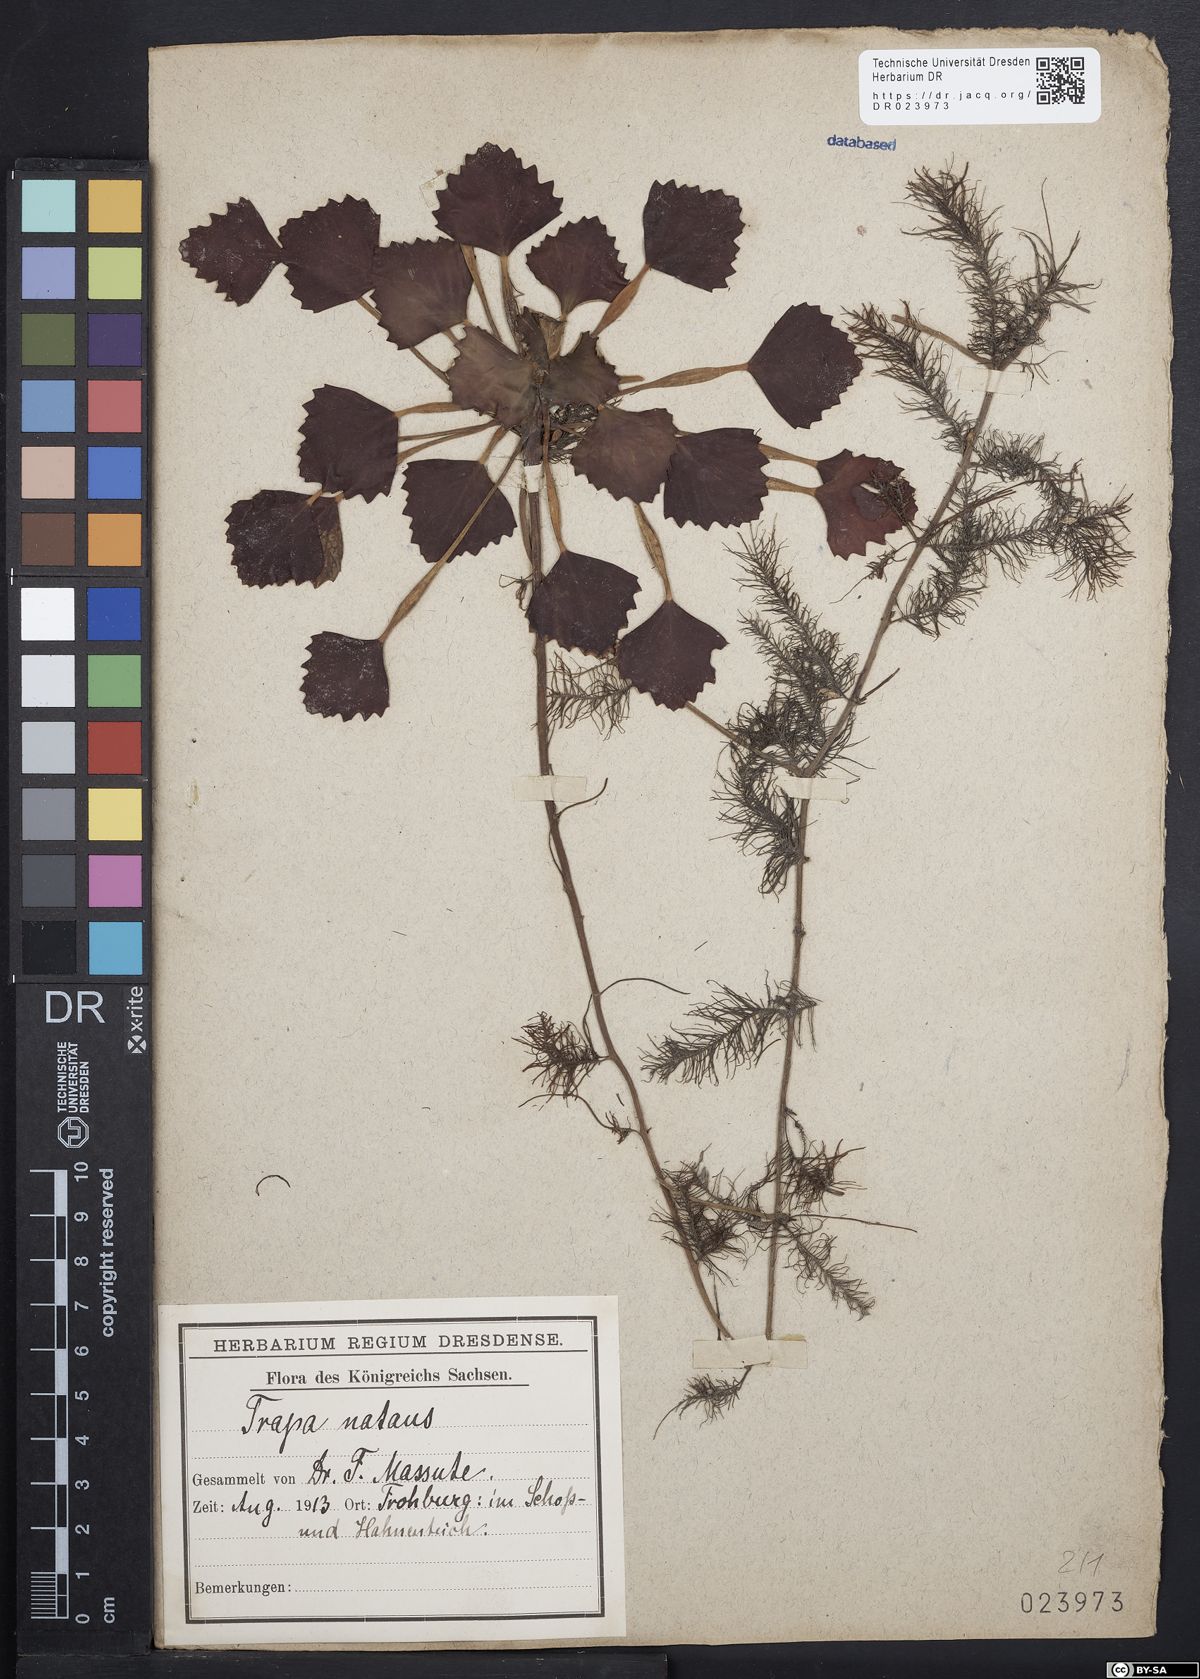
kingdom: Plantae
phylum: Tracheophyta
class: Magnoliopsida
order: Myrtales
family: Lythraceae
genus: Trapa
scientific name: Trapa natans
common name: Water chestnut
